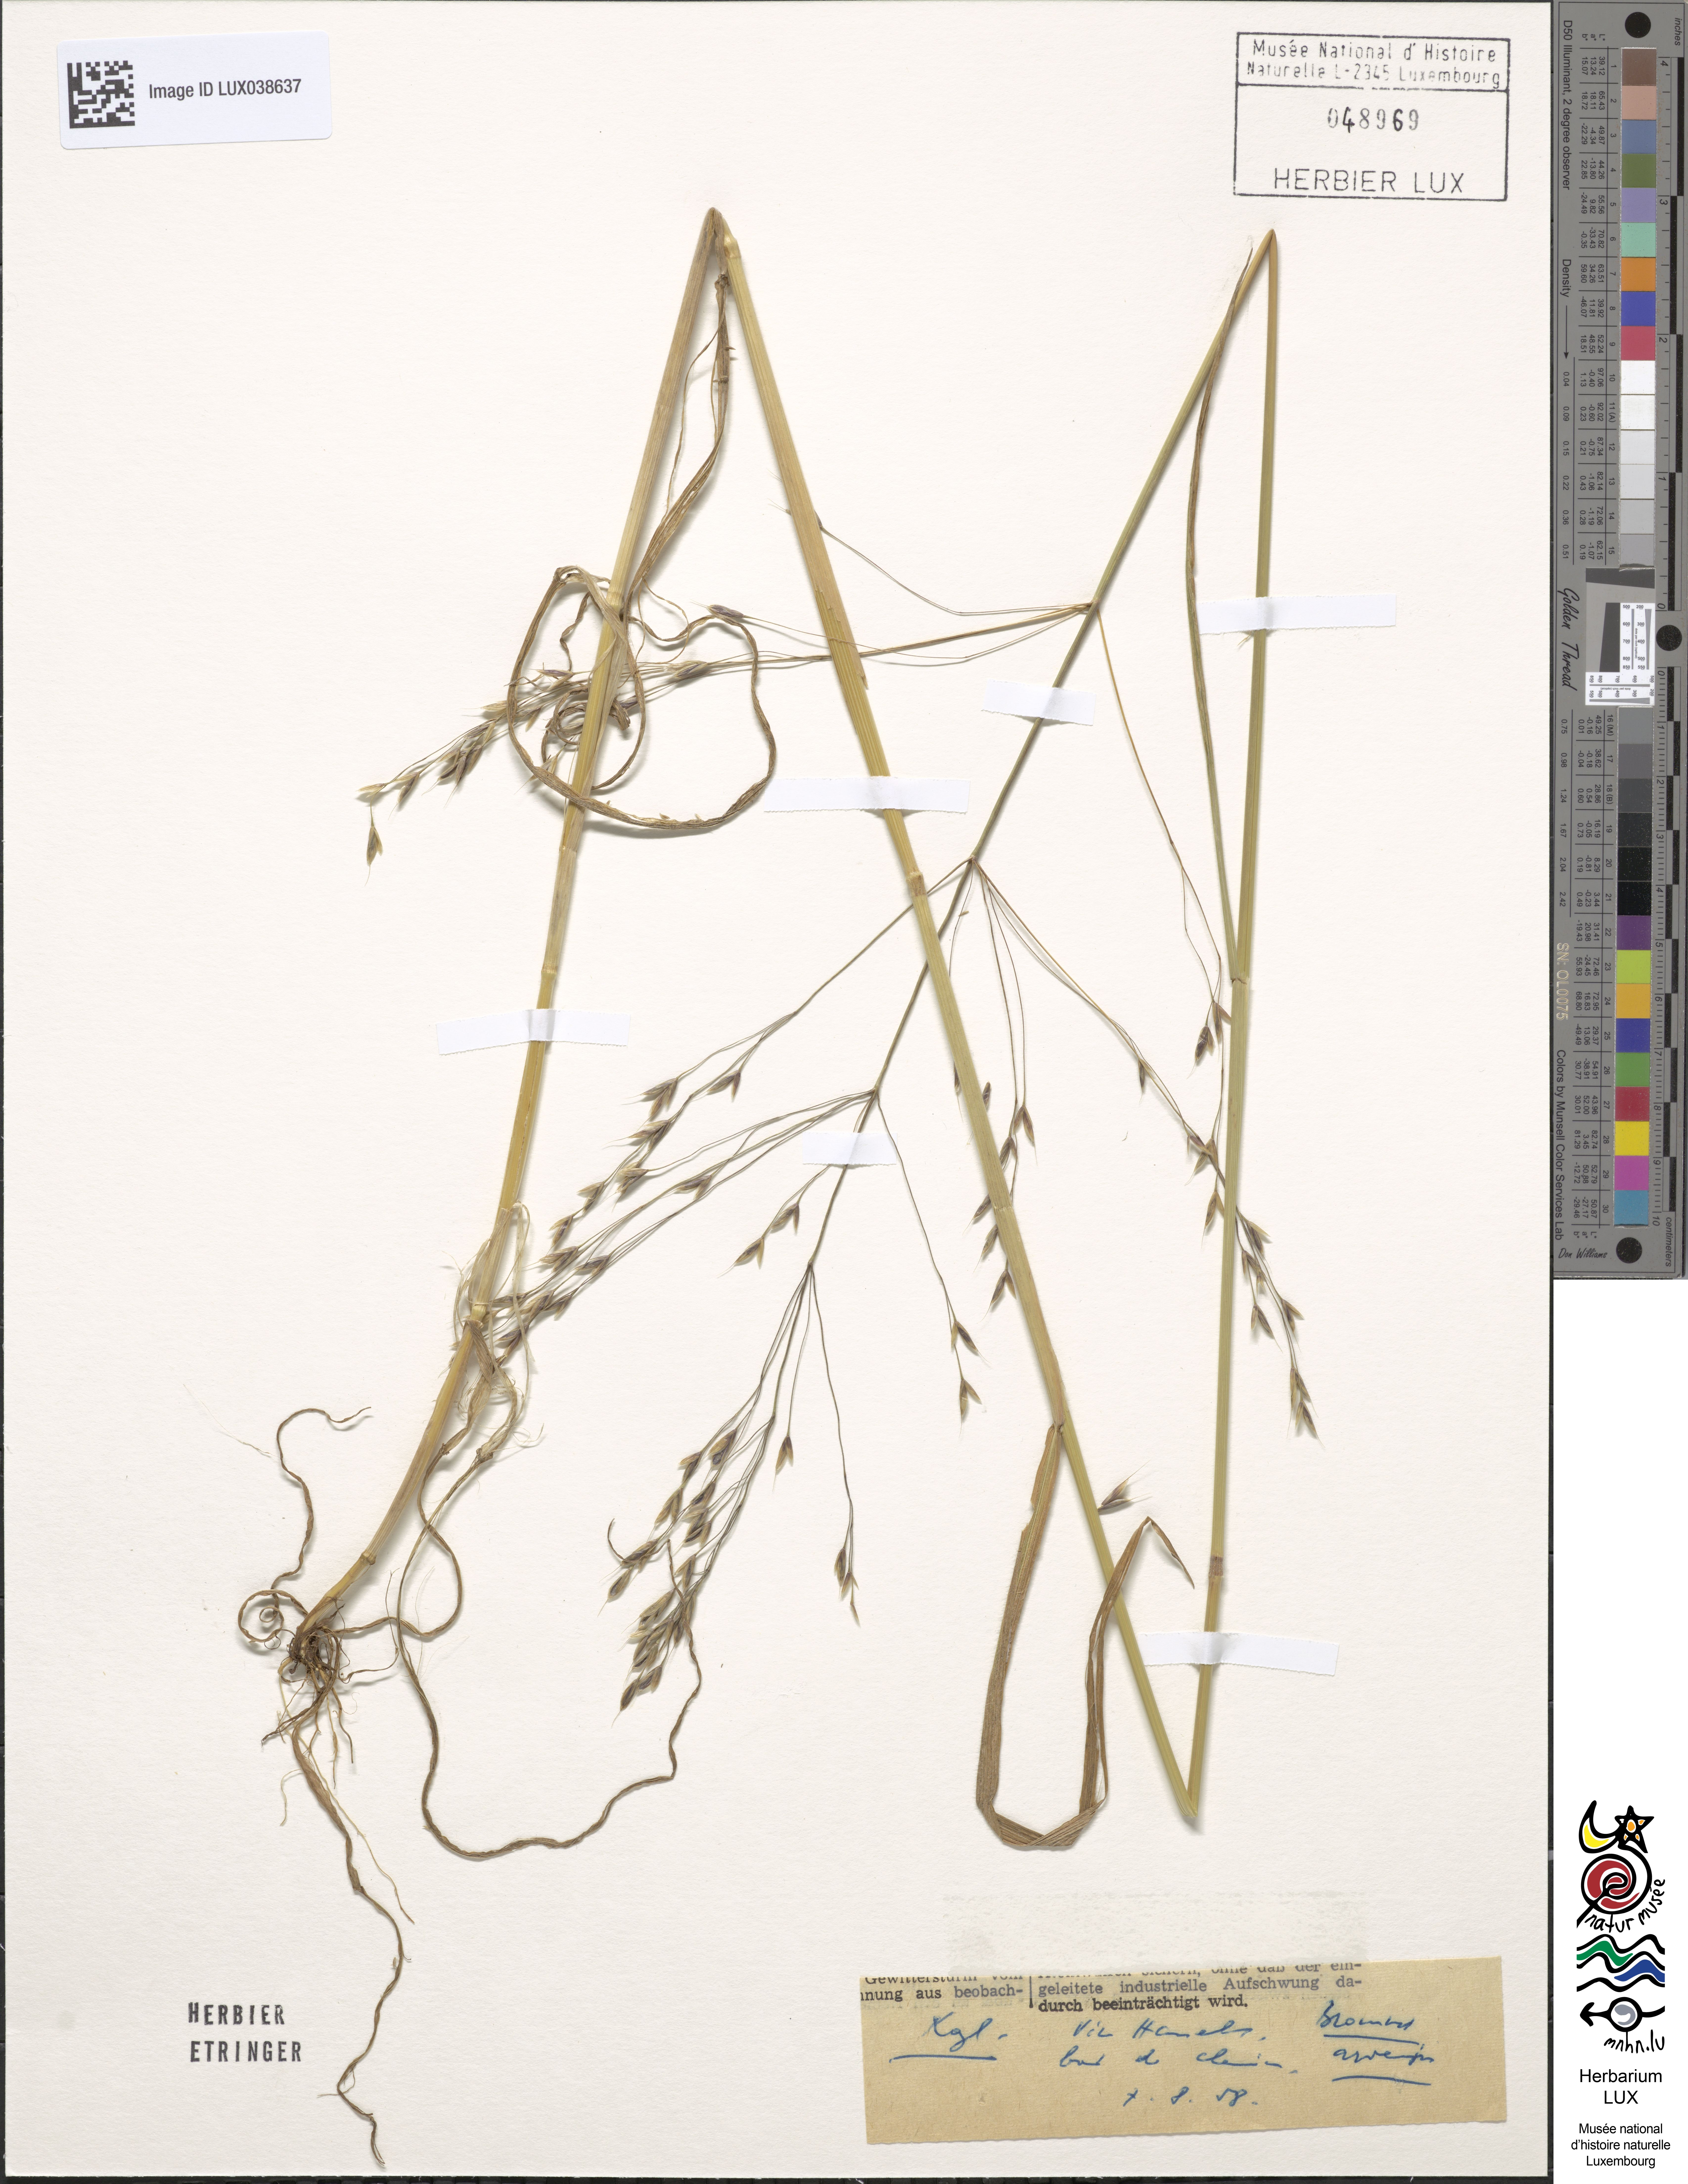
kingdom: Plantae
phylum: Tracheophyta
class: Liliopsida
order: Poales
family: Poaceae
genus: Bromus
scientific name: Bromus arvensis
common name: Field brome
